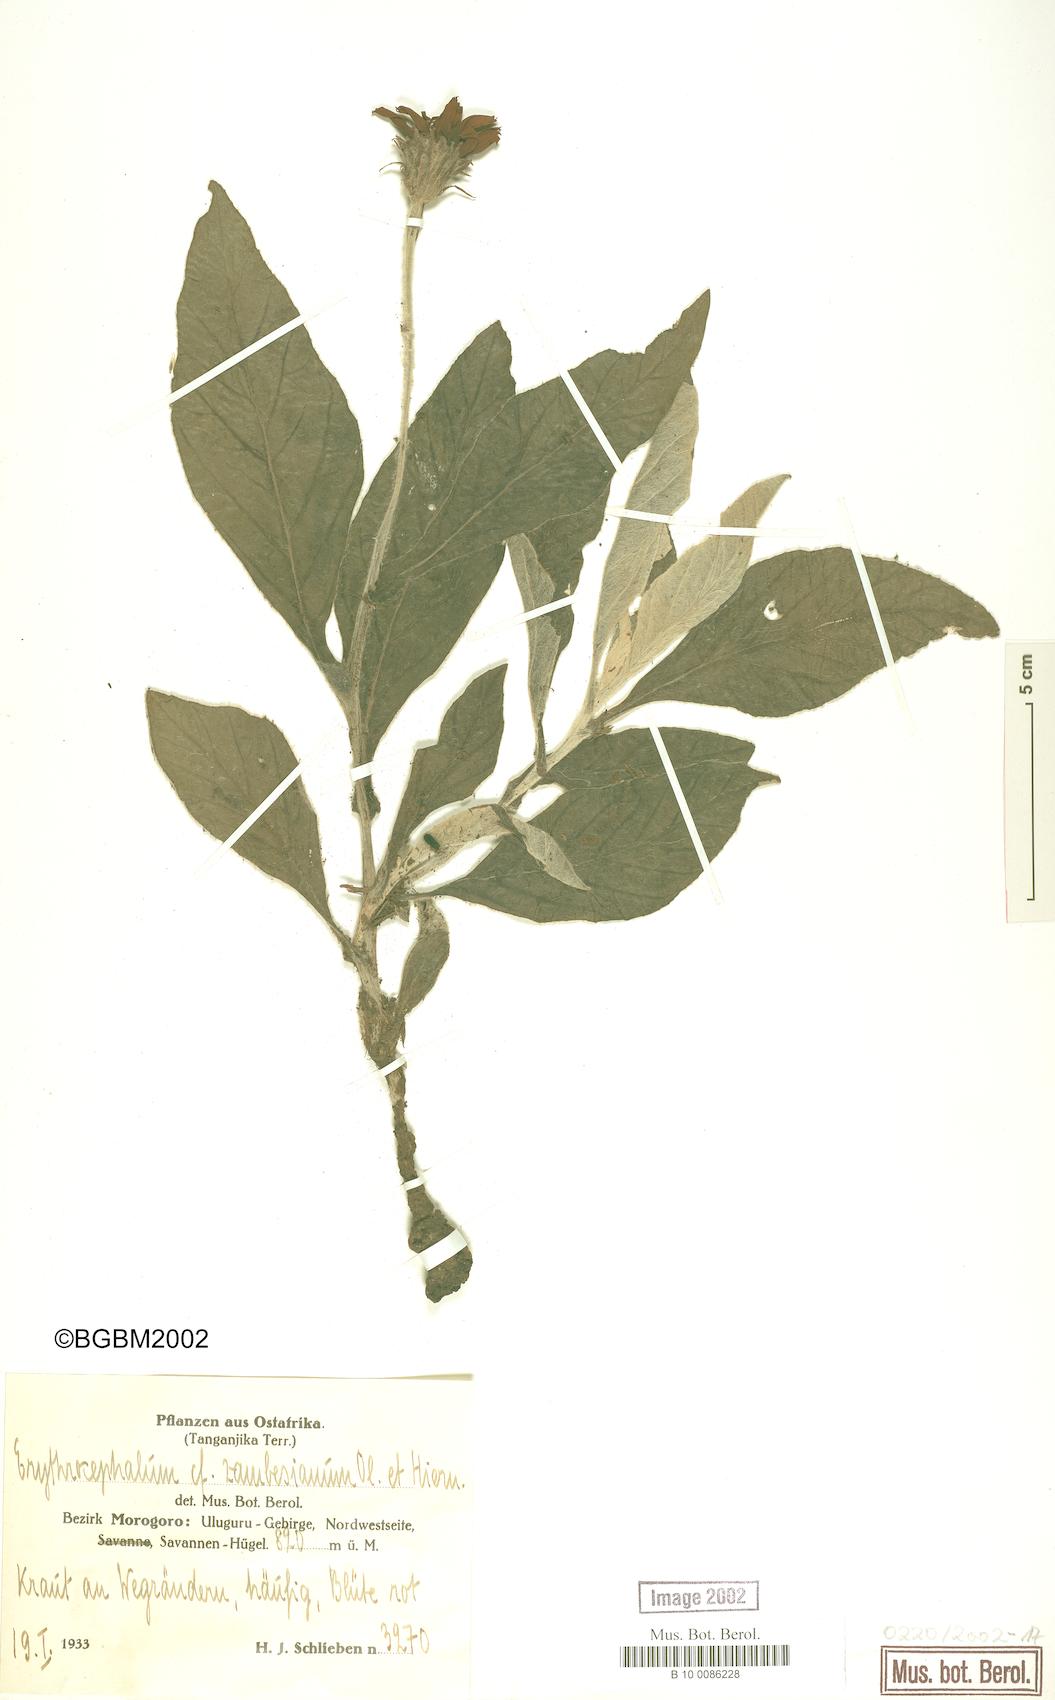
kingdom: Plantae
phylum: Tracheophyta
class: Magnoliopsida
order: Asterales
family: Asteraceae
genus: Erythrocephalum
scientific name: Erythrocephalum longifolium
